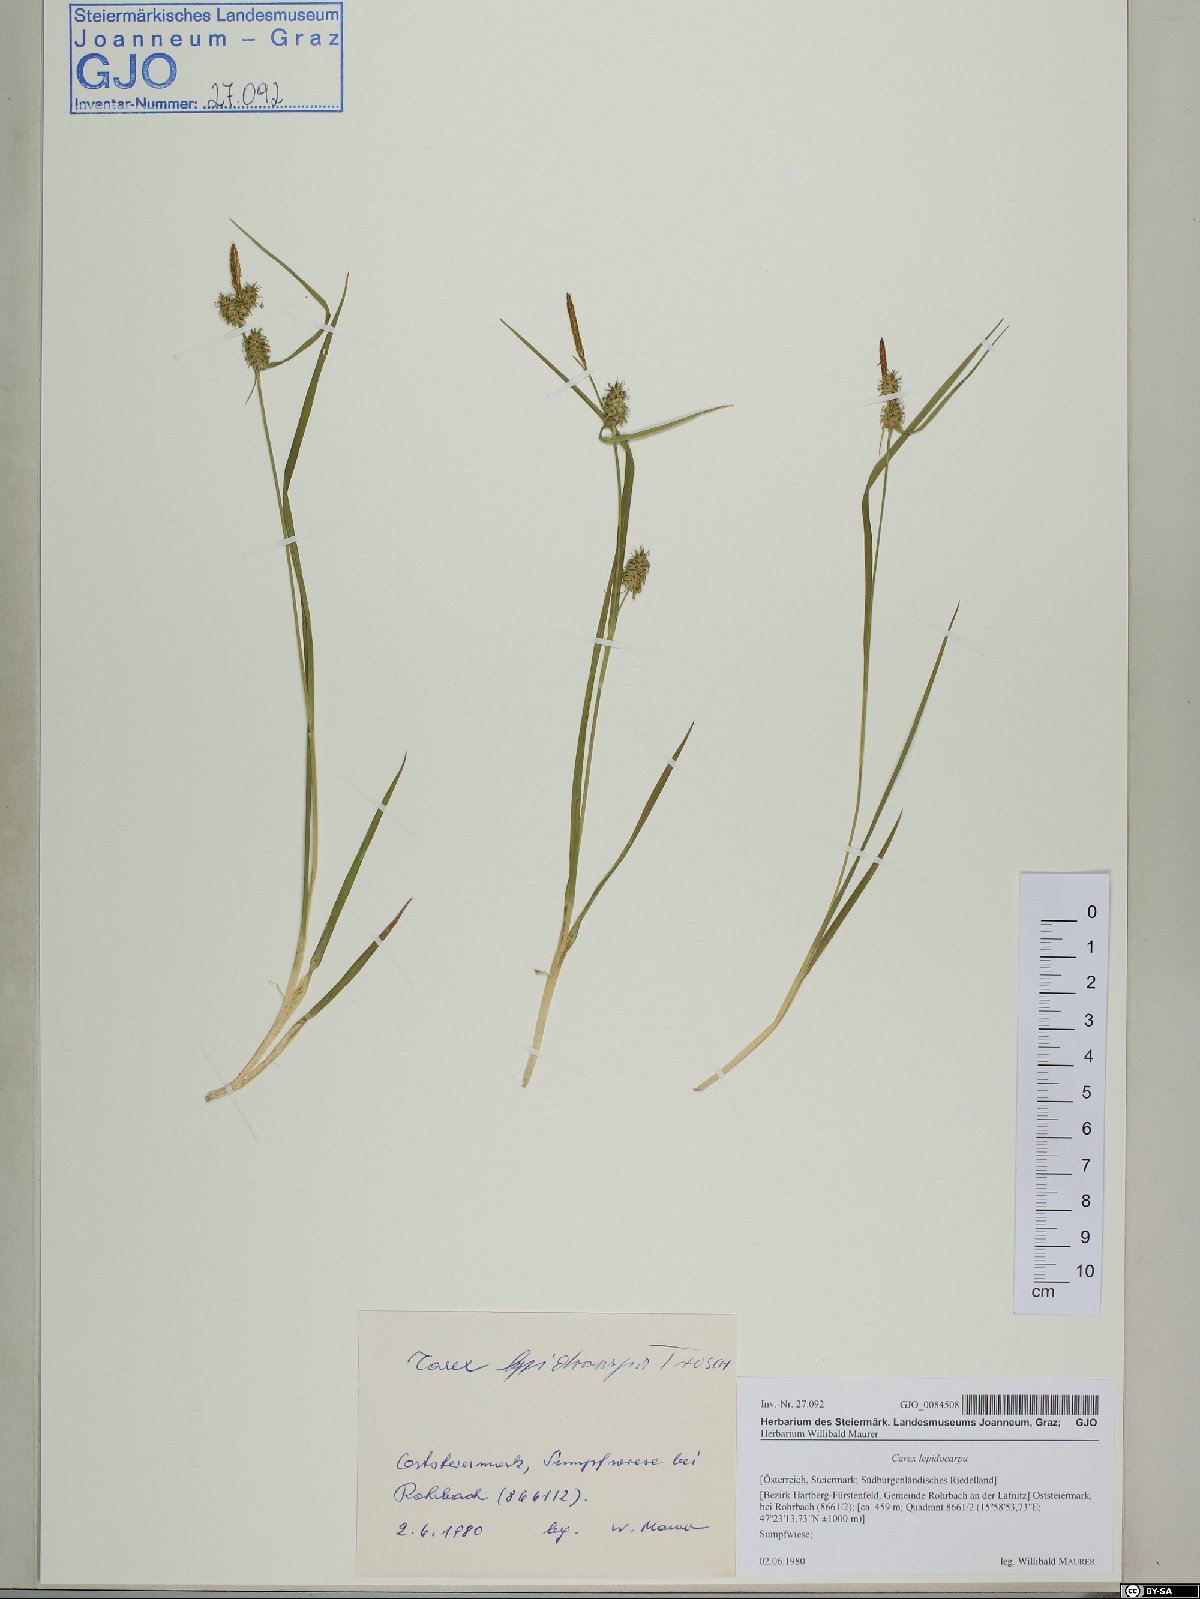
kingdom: Plantae
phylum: Tracheophyta
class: Liliopsida
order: Poales
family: Cyperaceae
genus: Carex
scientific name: Carex lepidocarpa
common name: Long-stalked yellow-sedge
